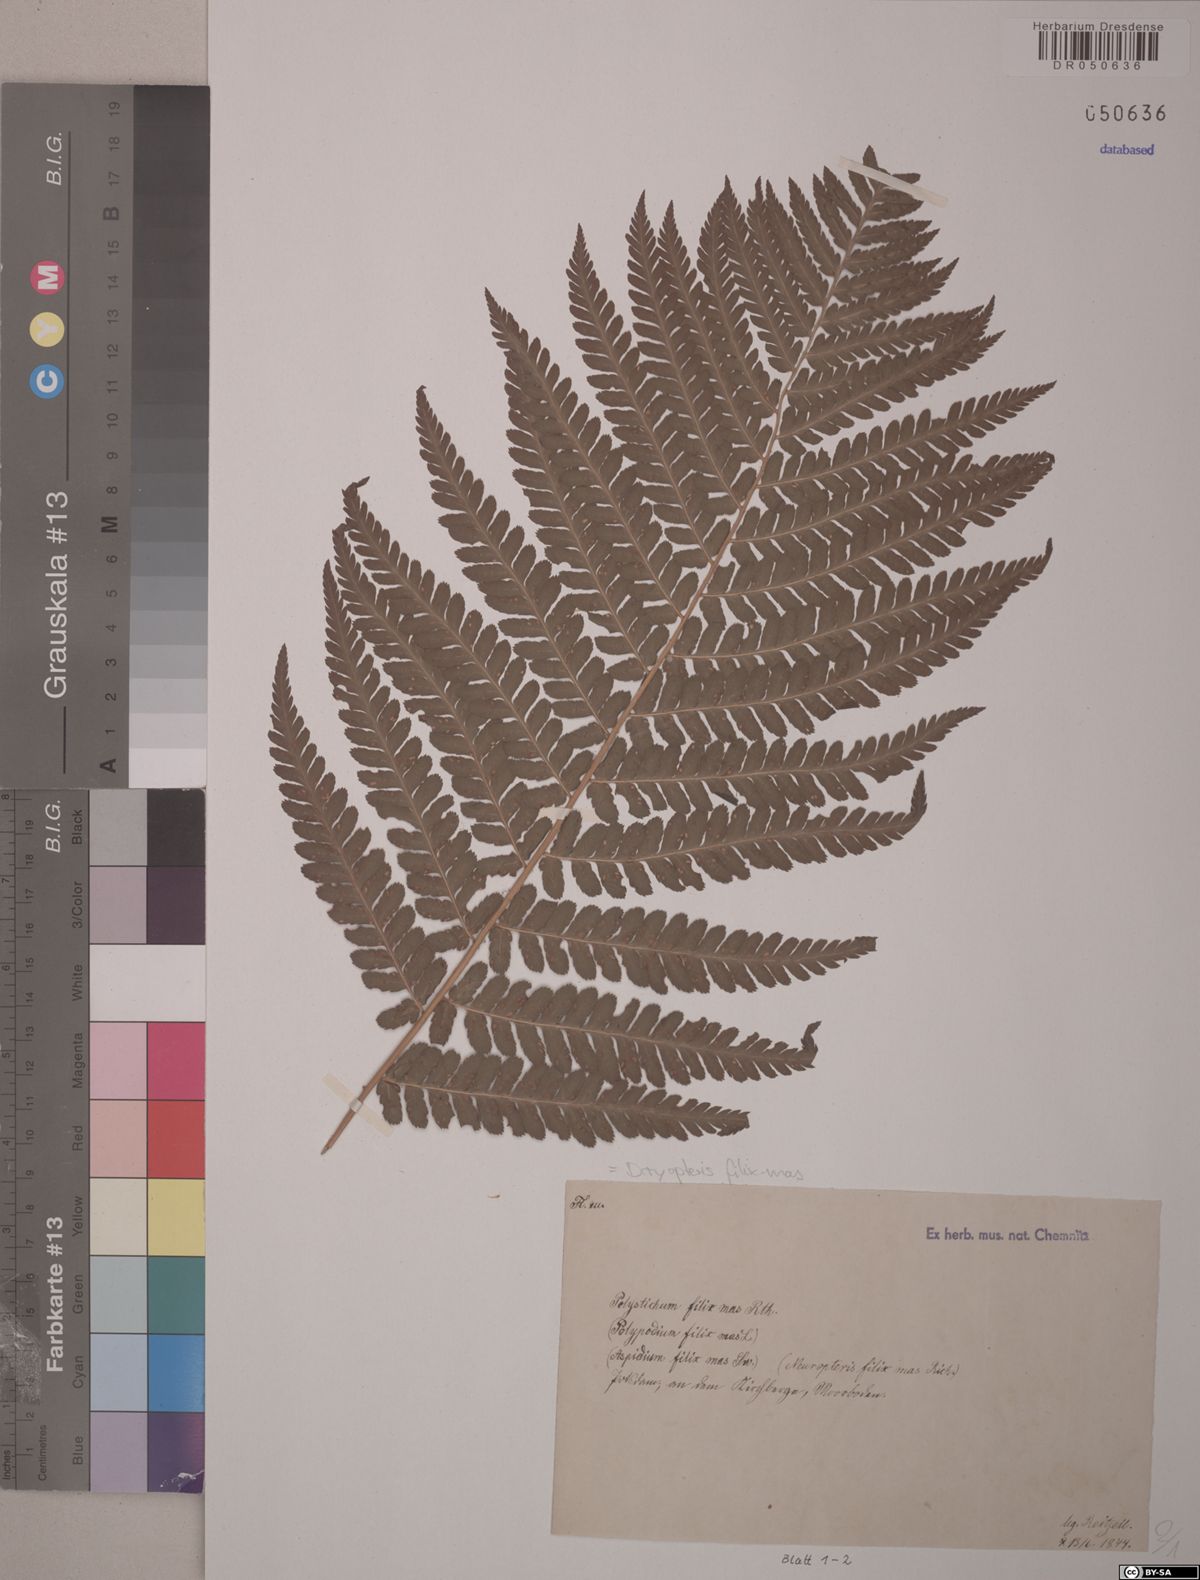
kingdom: Plantae
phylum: Tracheophyta
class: Polypodiopsida
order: Polypodiales
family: Dryopteridaceae
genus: Dryopteris
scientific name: Dryopteris filix-mas
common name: Male fern
